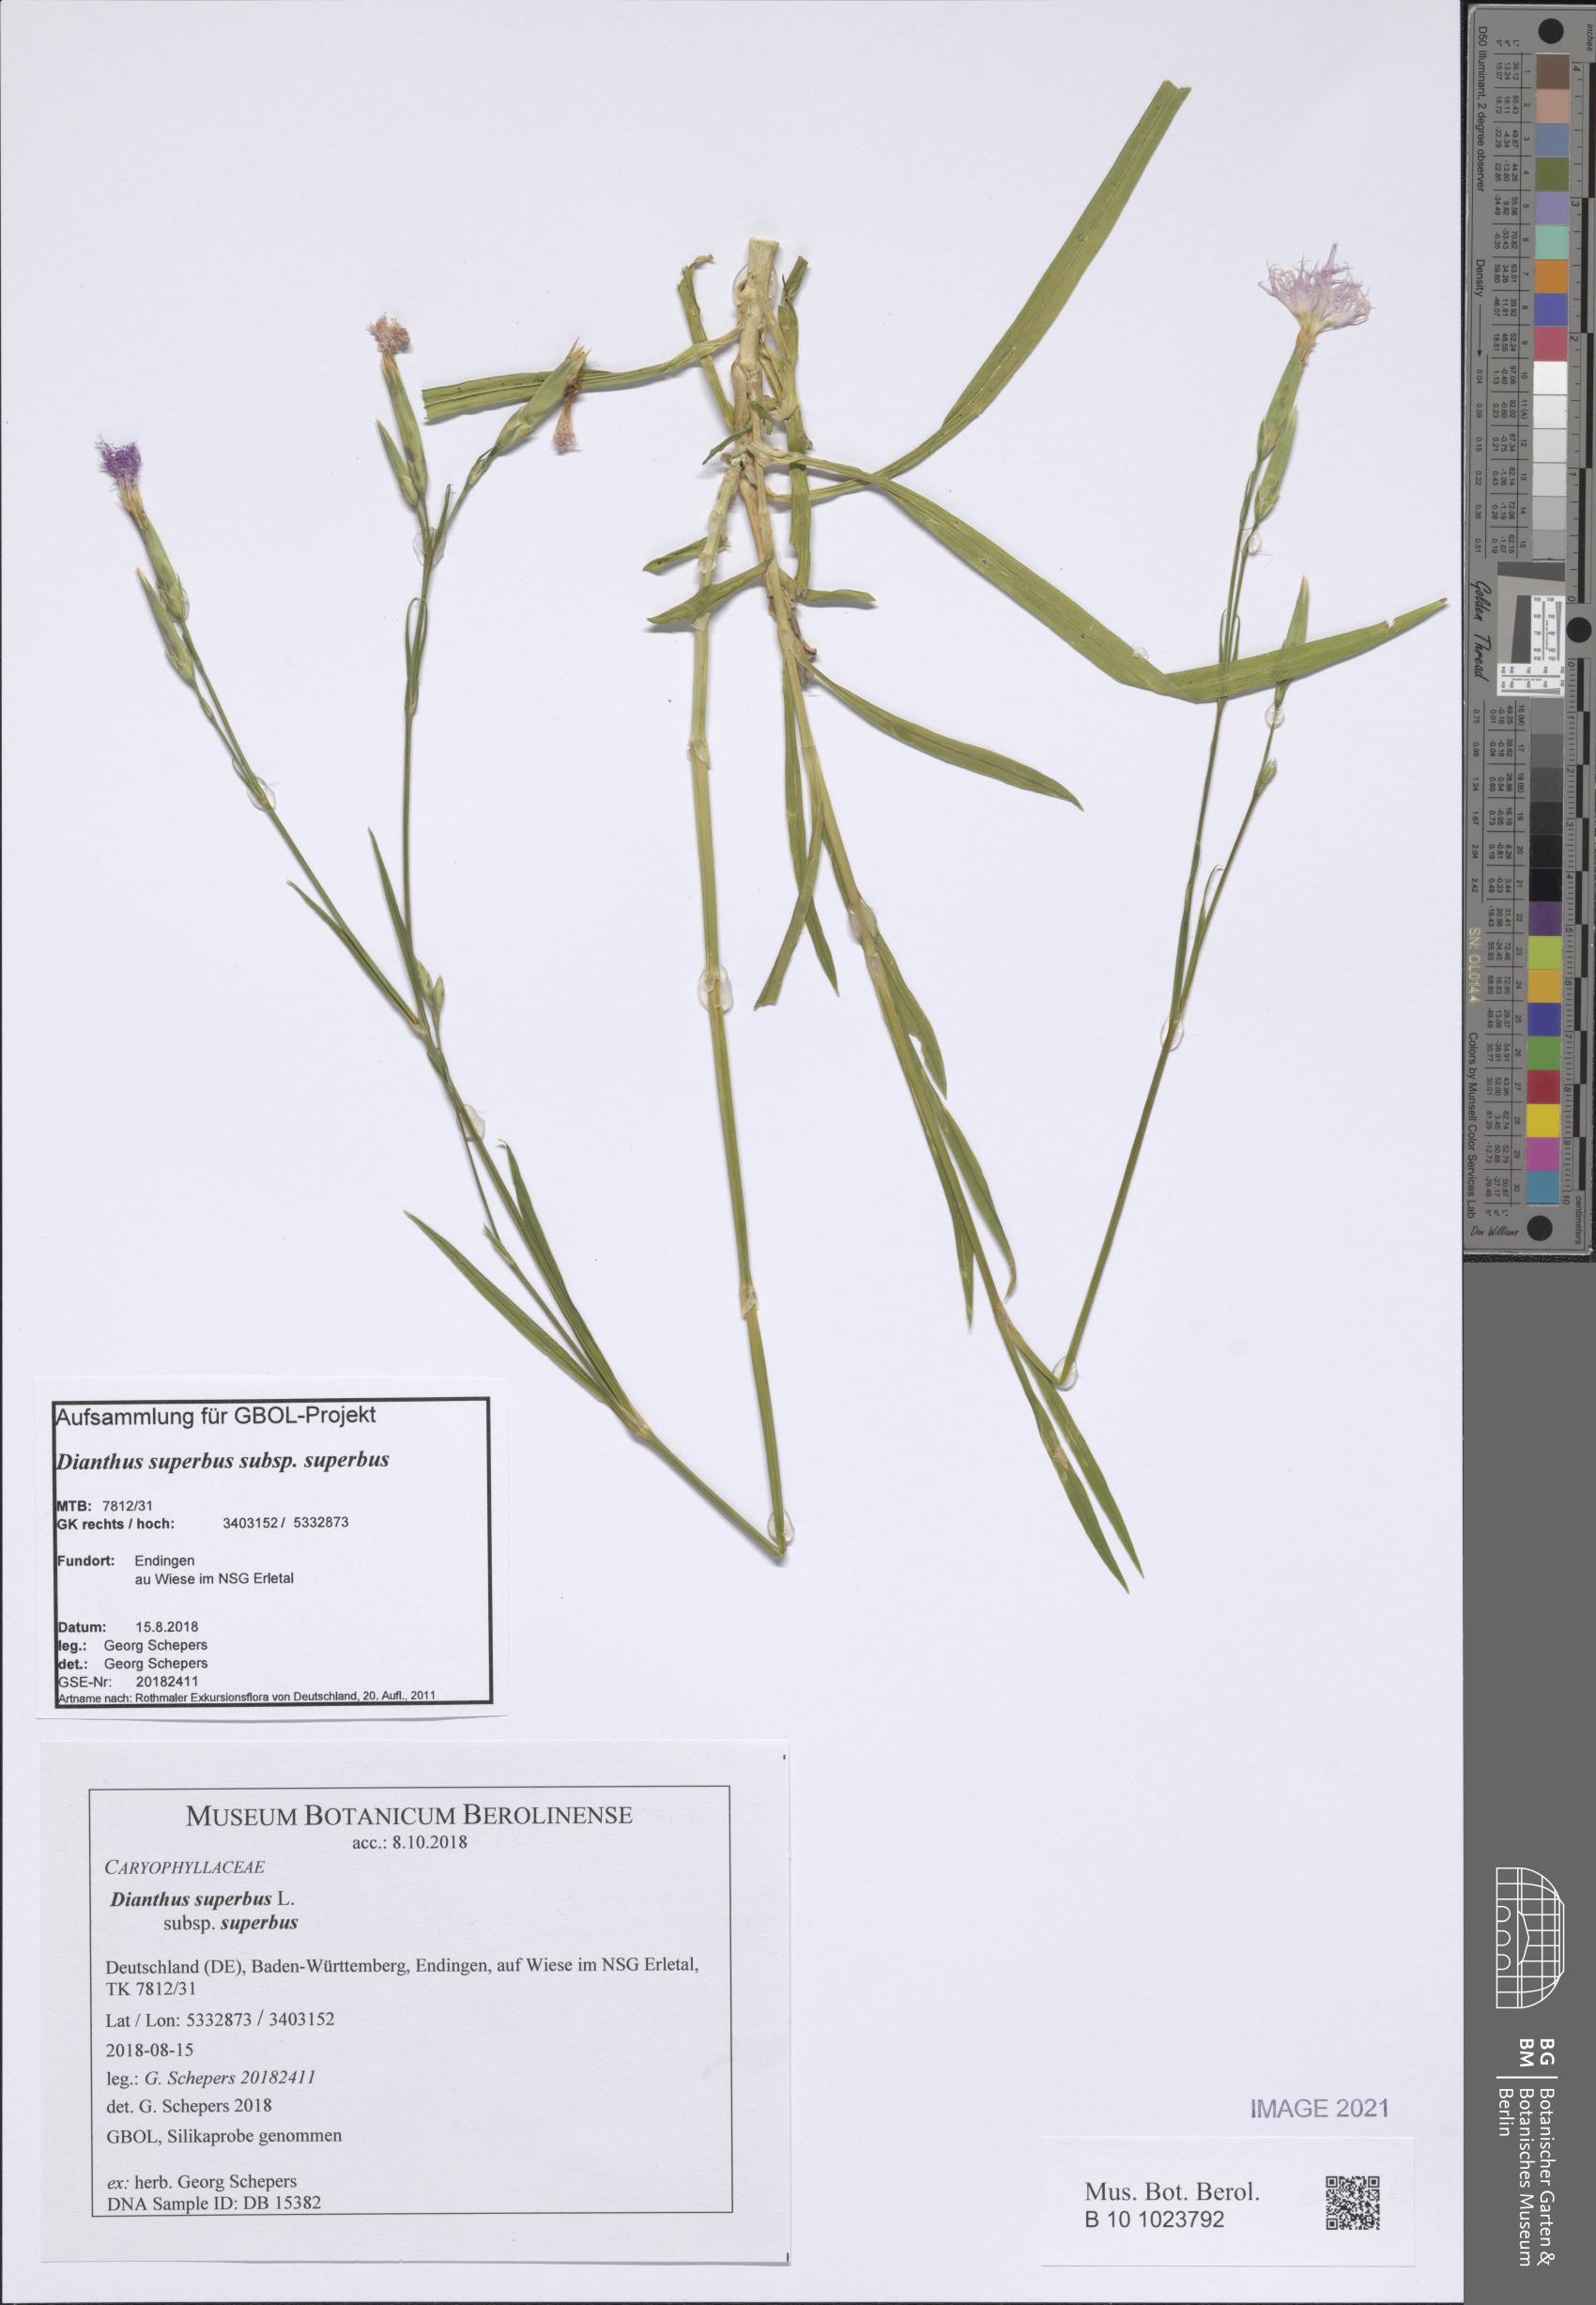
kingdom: Plantae
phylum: Tracheophyta
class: Magnoliopsida
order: Caryophyllales
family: Caryophyllaceae
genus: Dianthus
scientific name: Dianthus superbus
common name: Fringed pink
